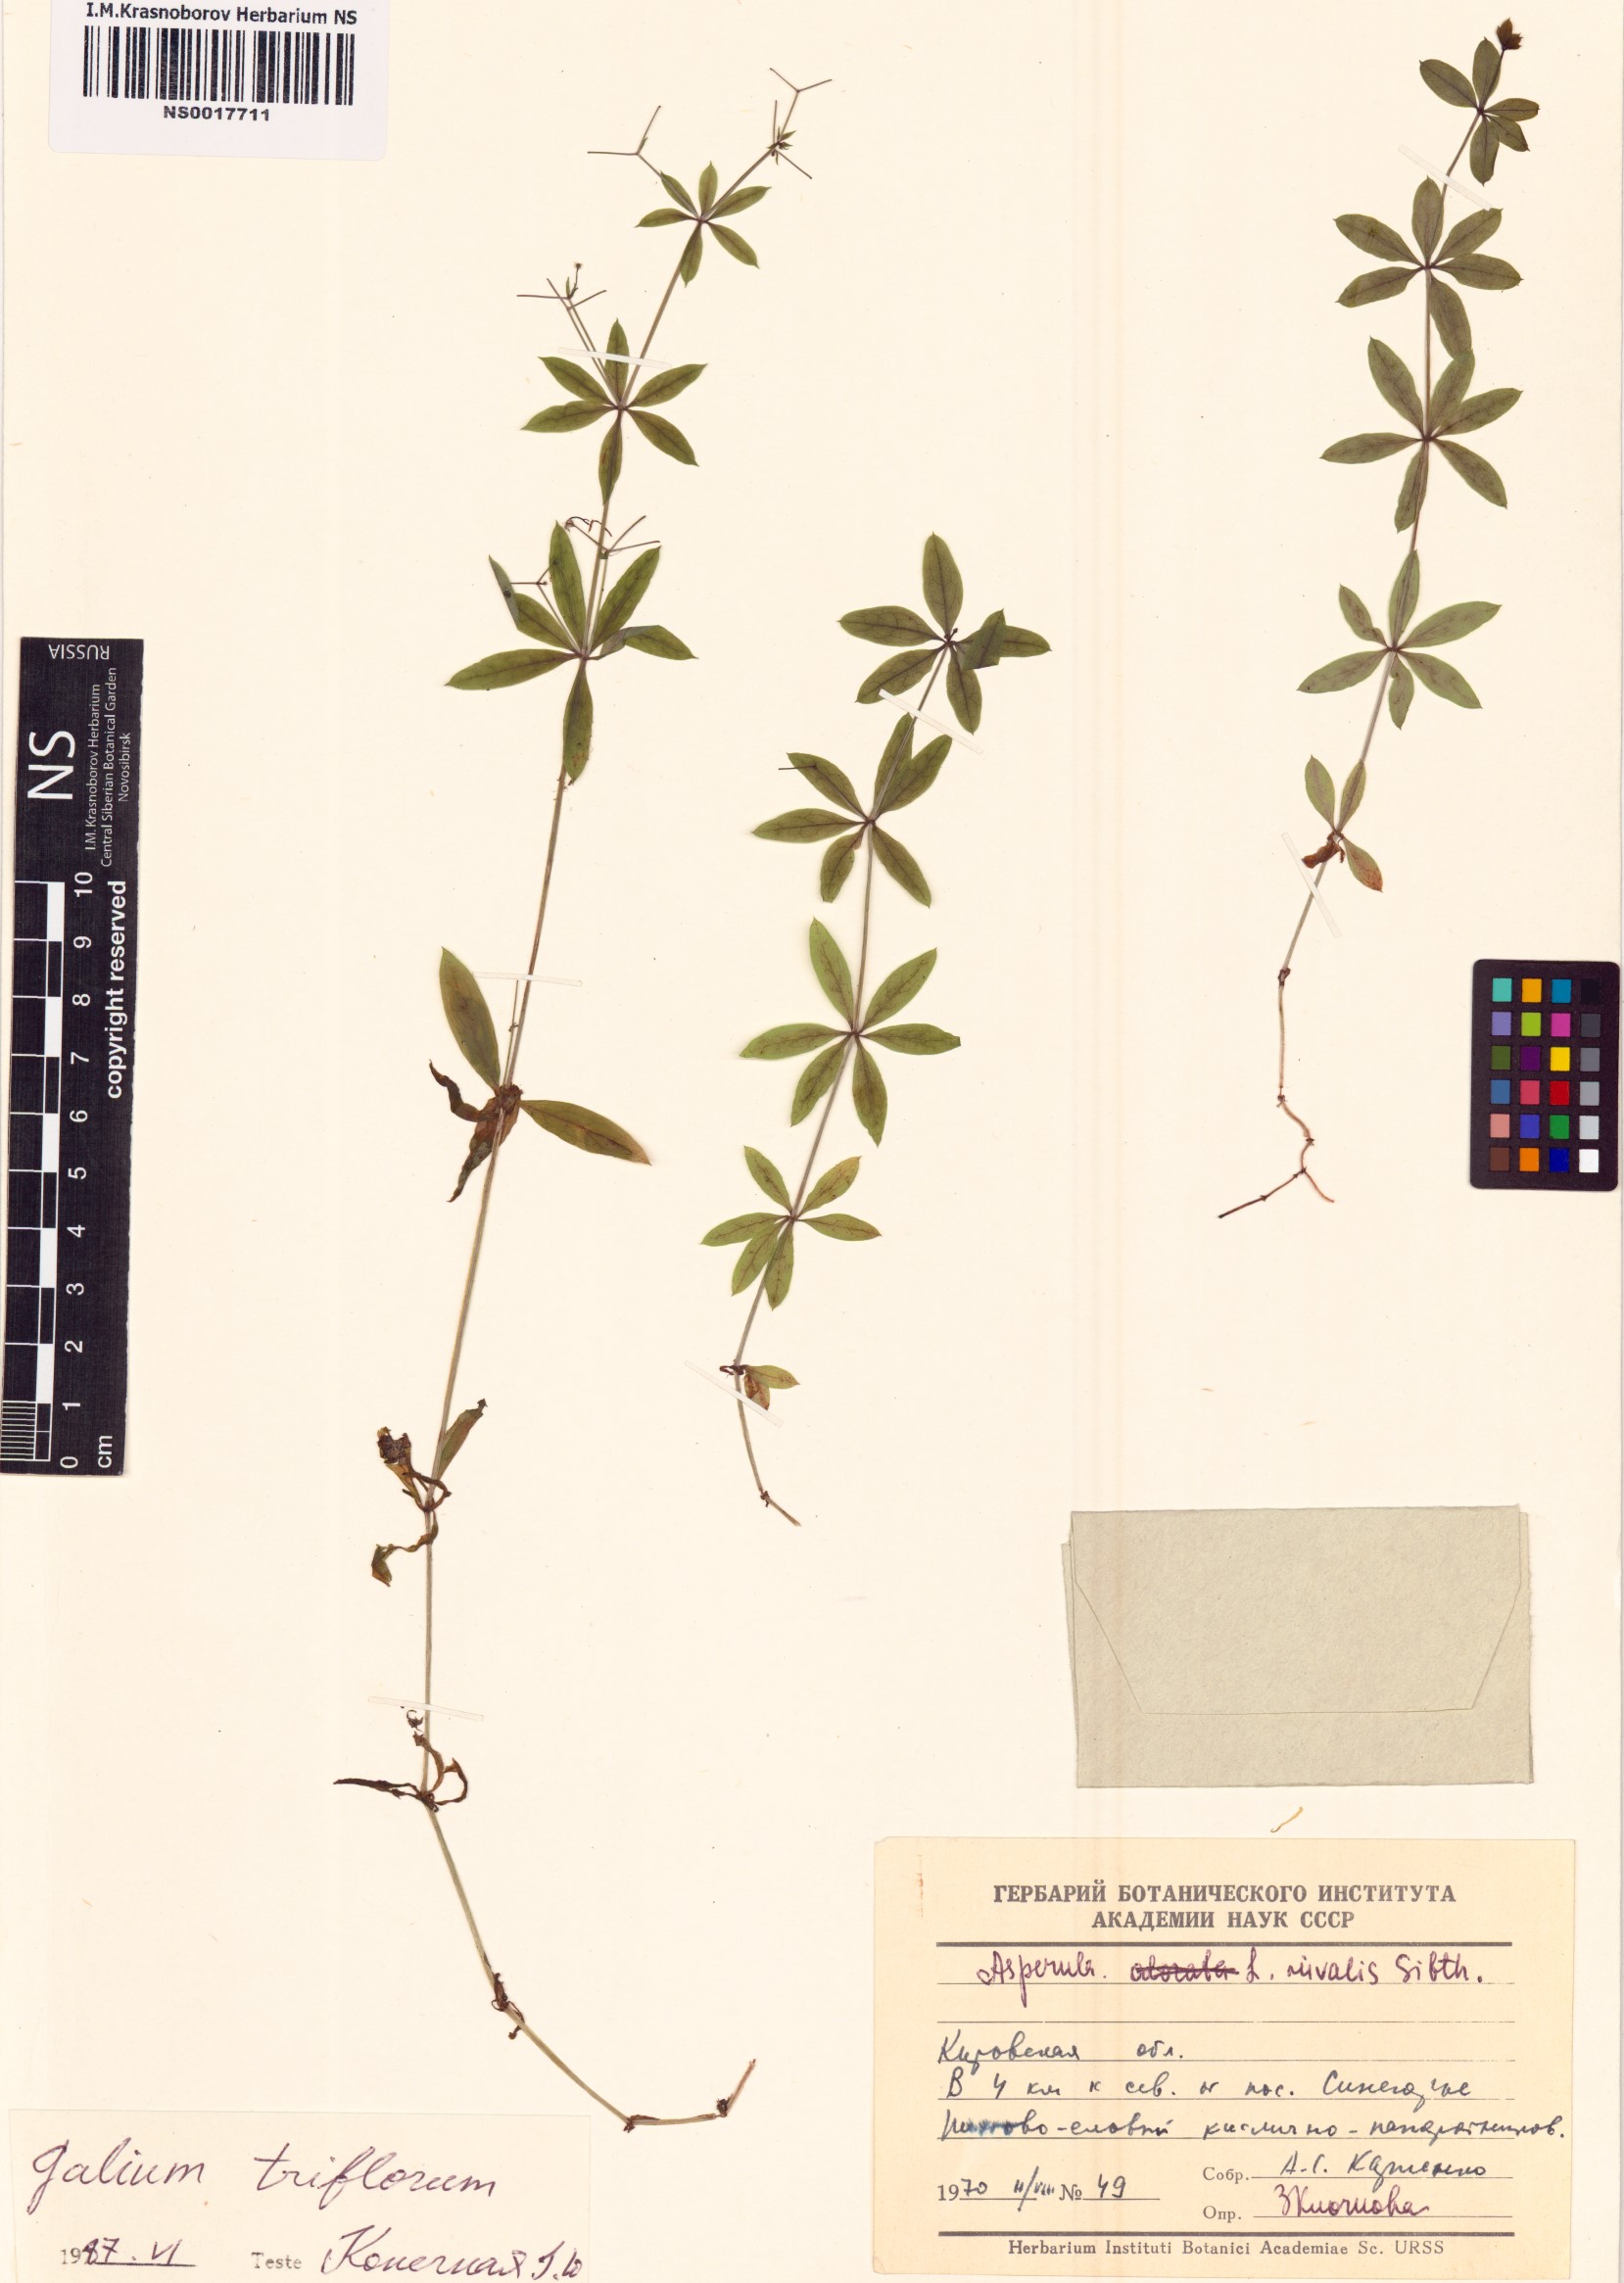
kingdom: Plantae
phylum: Tracheophyta
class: Magnoliopsida
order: Gentianales
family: Rubiaceae
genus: Galium
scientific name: Galium triflorum
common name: Fragrant bedstraw
